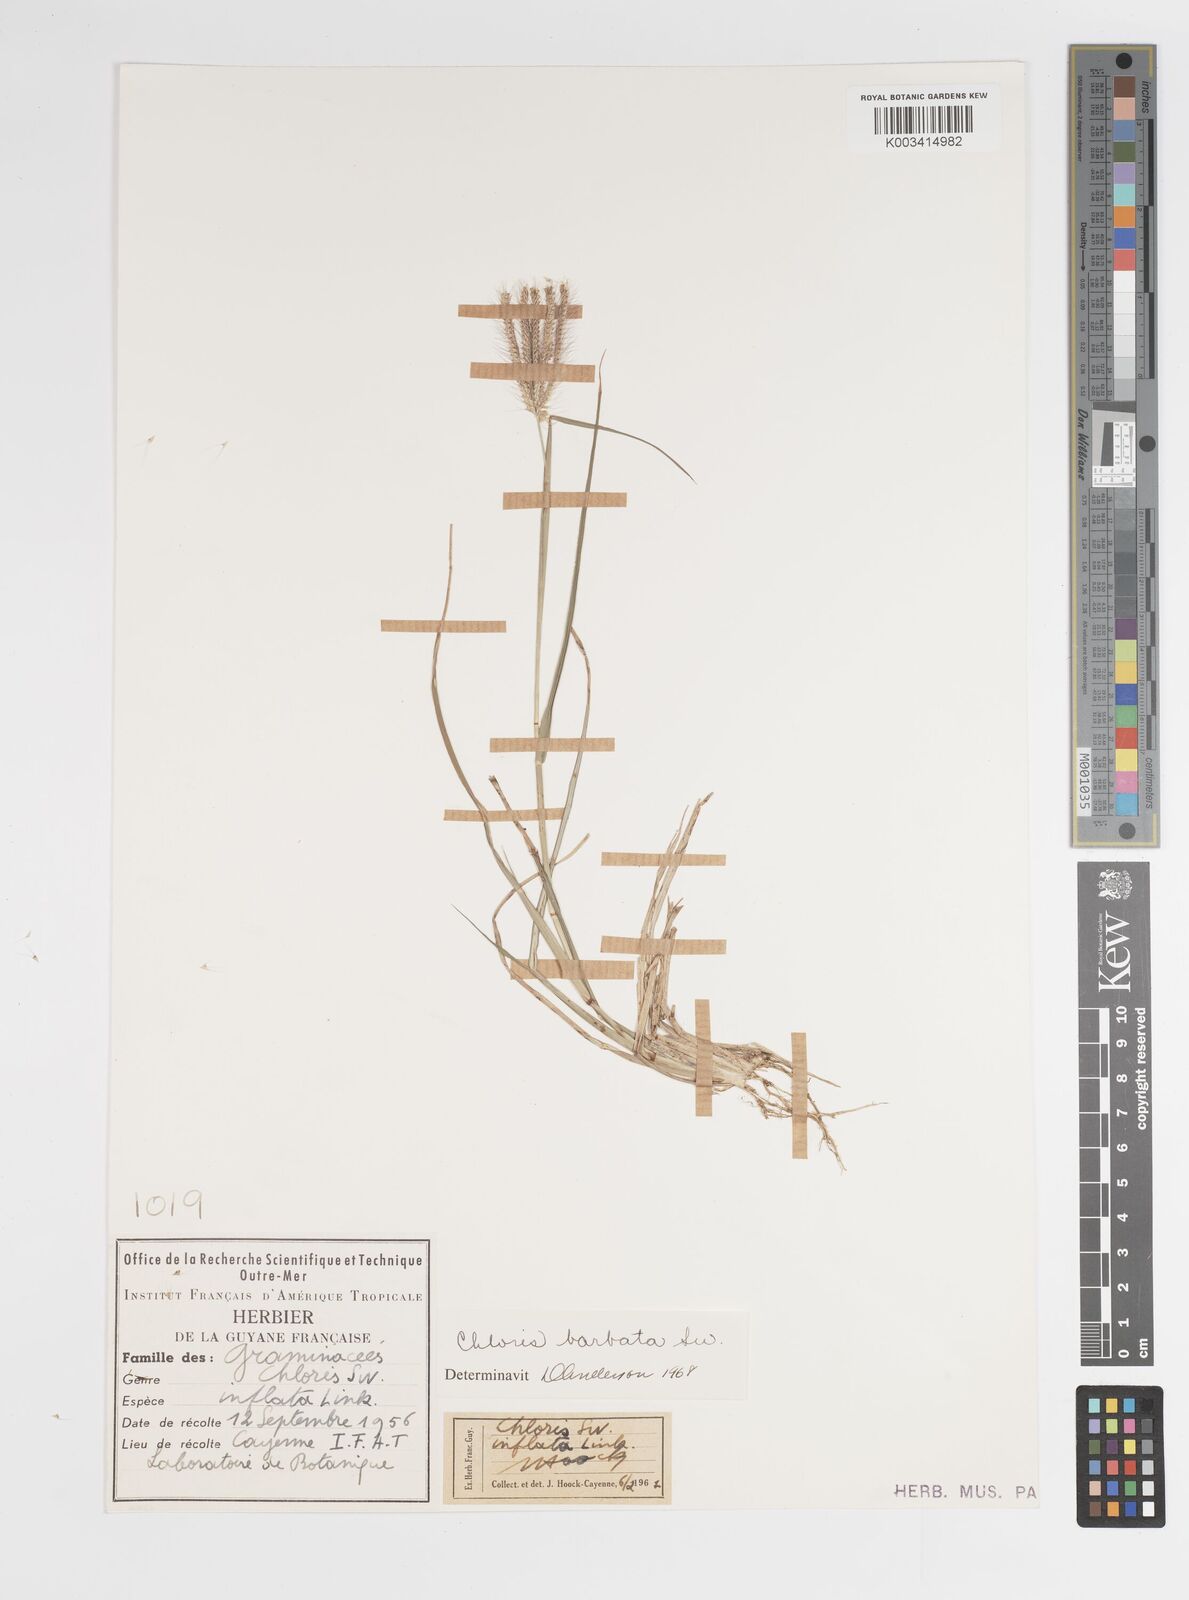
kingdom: Plantae
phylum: Tracheophyta
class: Liliopsida
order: Poales
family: Poaceae
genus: Chloris
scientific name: Chloris barbata
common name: Swollen fingergrass
